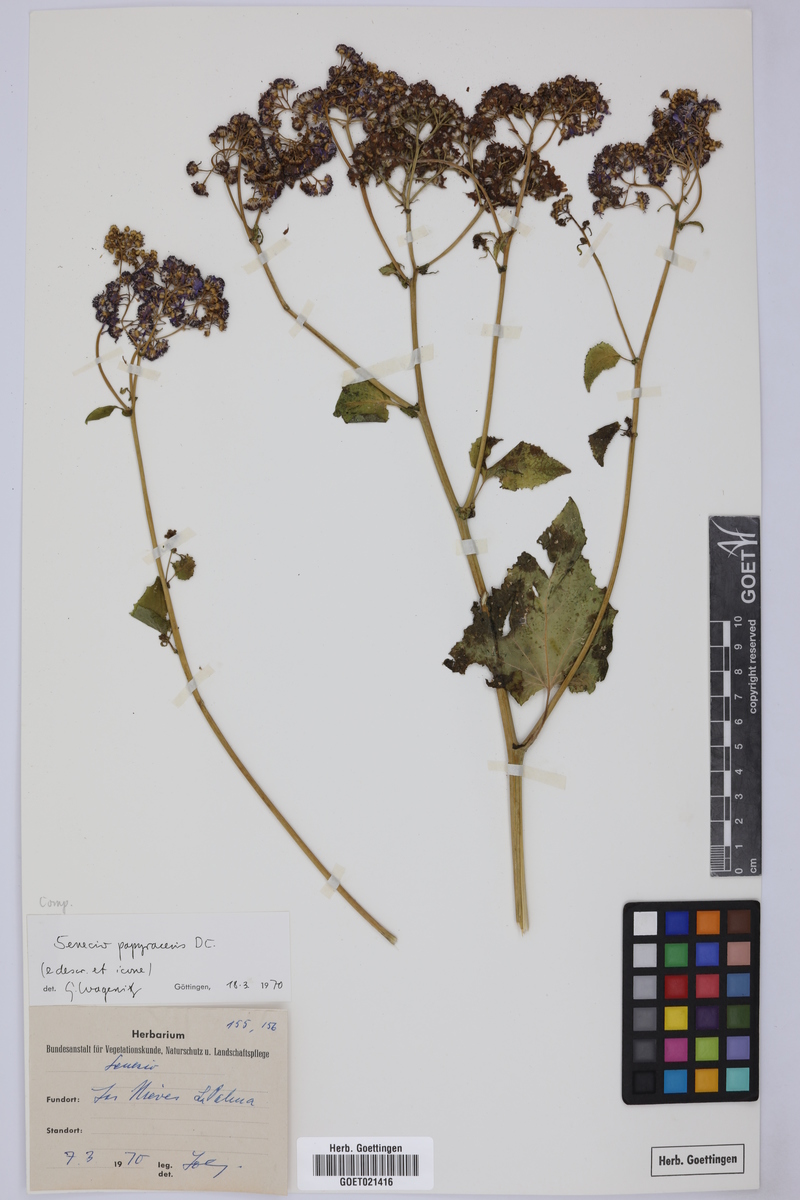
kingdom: Plantae
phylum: Tracheophyta
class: Magnoliopsida
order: Asterales
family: Asteraceae
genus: Pericallis
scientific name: Pericallis papyracea
